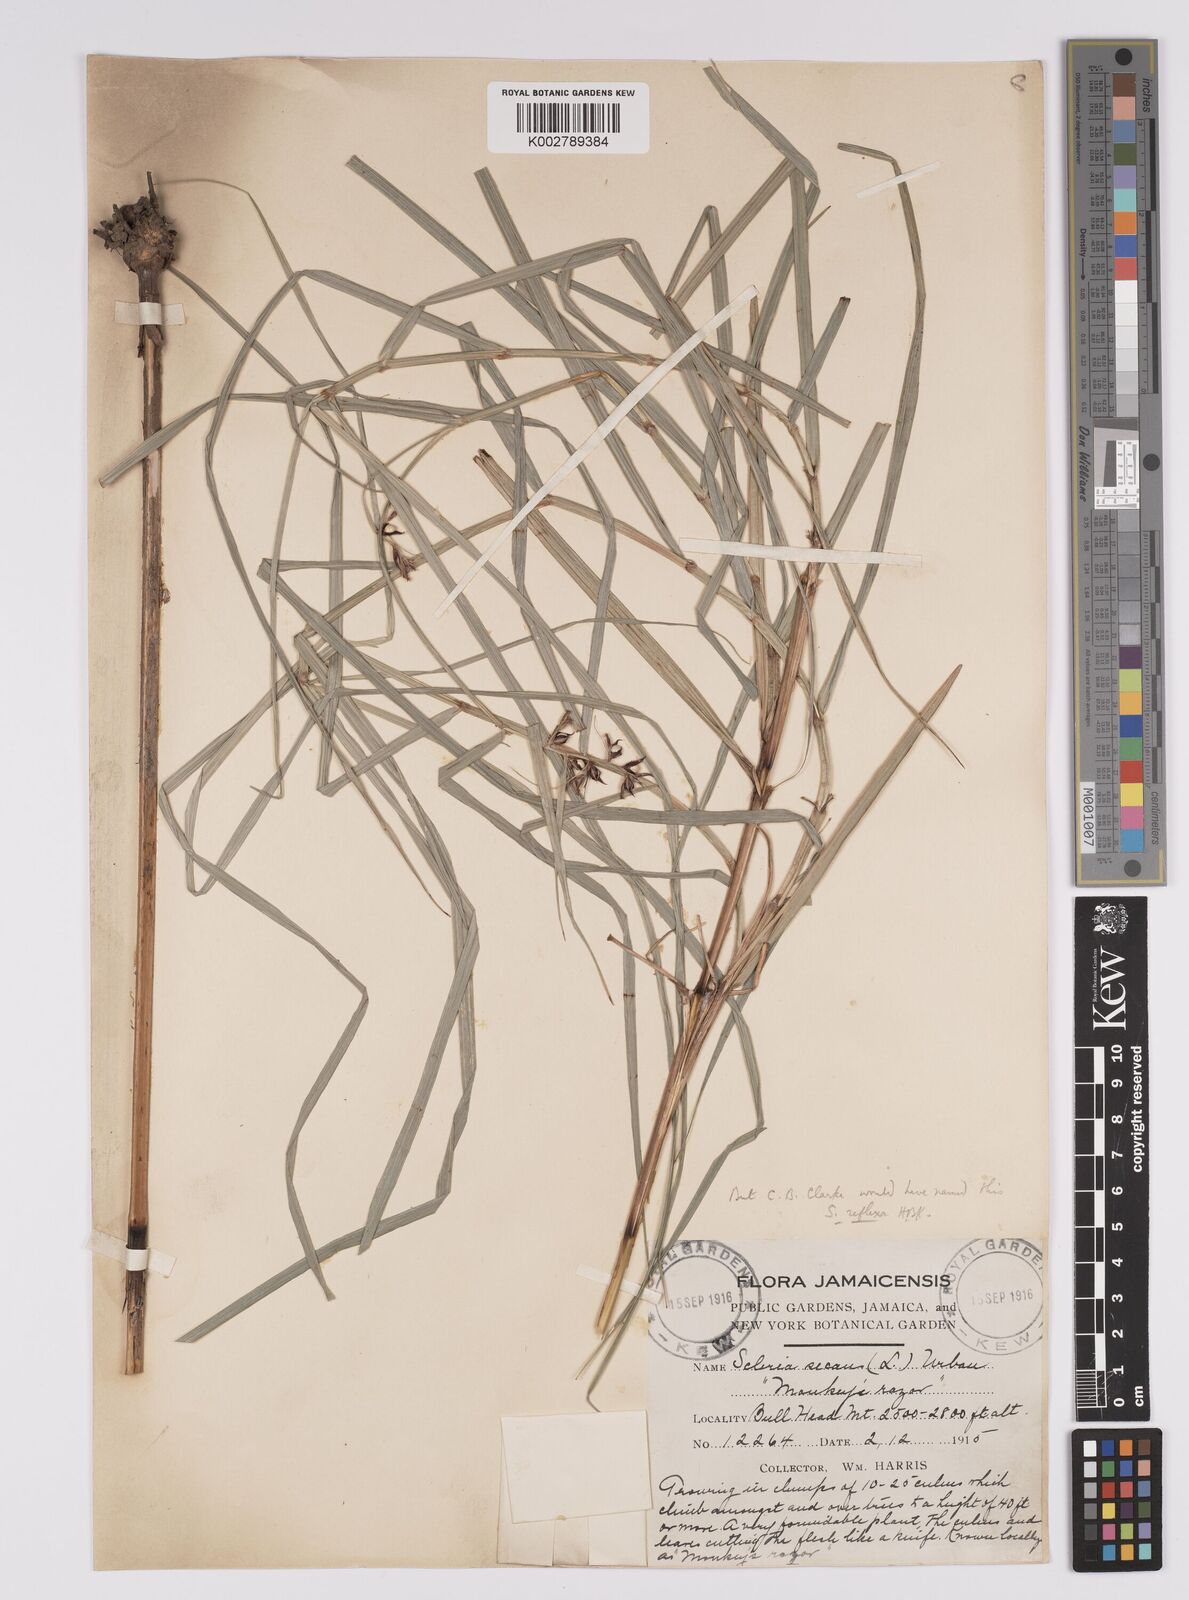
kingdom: Plantae
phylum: Tracheophyta
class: Liliopsida
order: Poales
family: Cyperaceae
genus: Scleria
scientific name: Scleria secans
